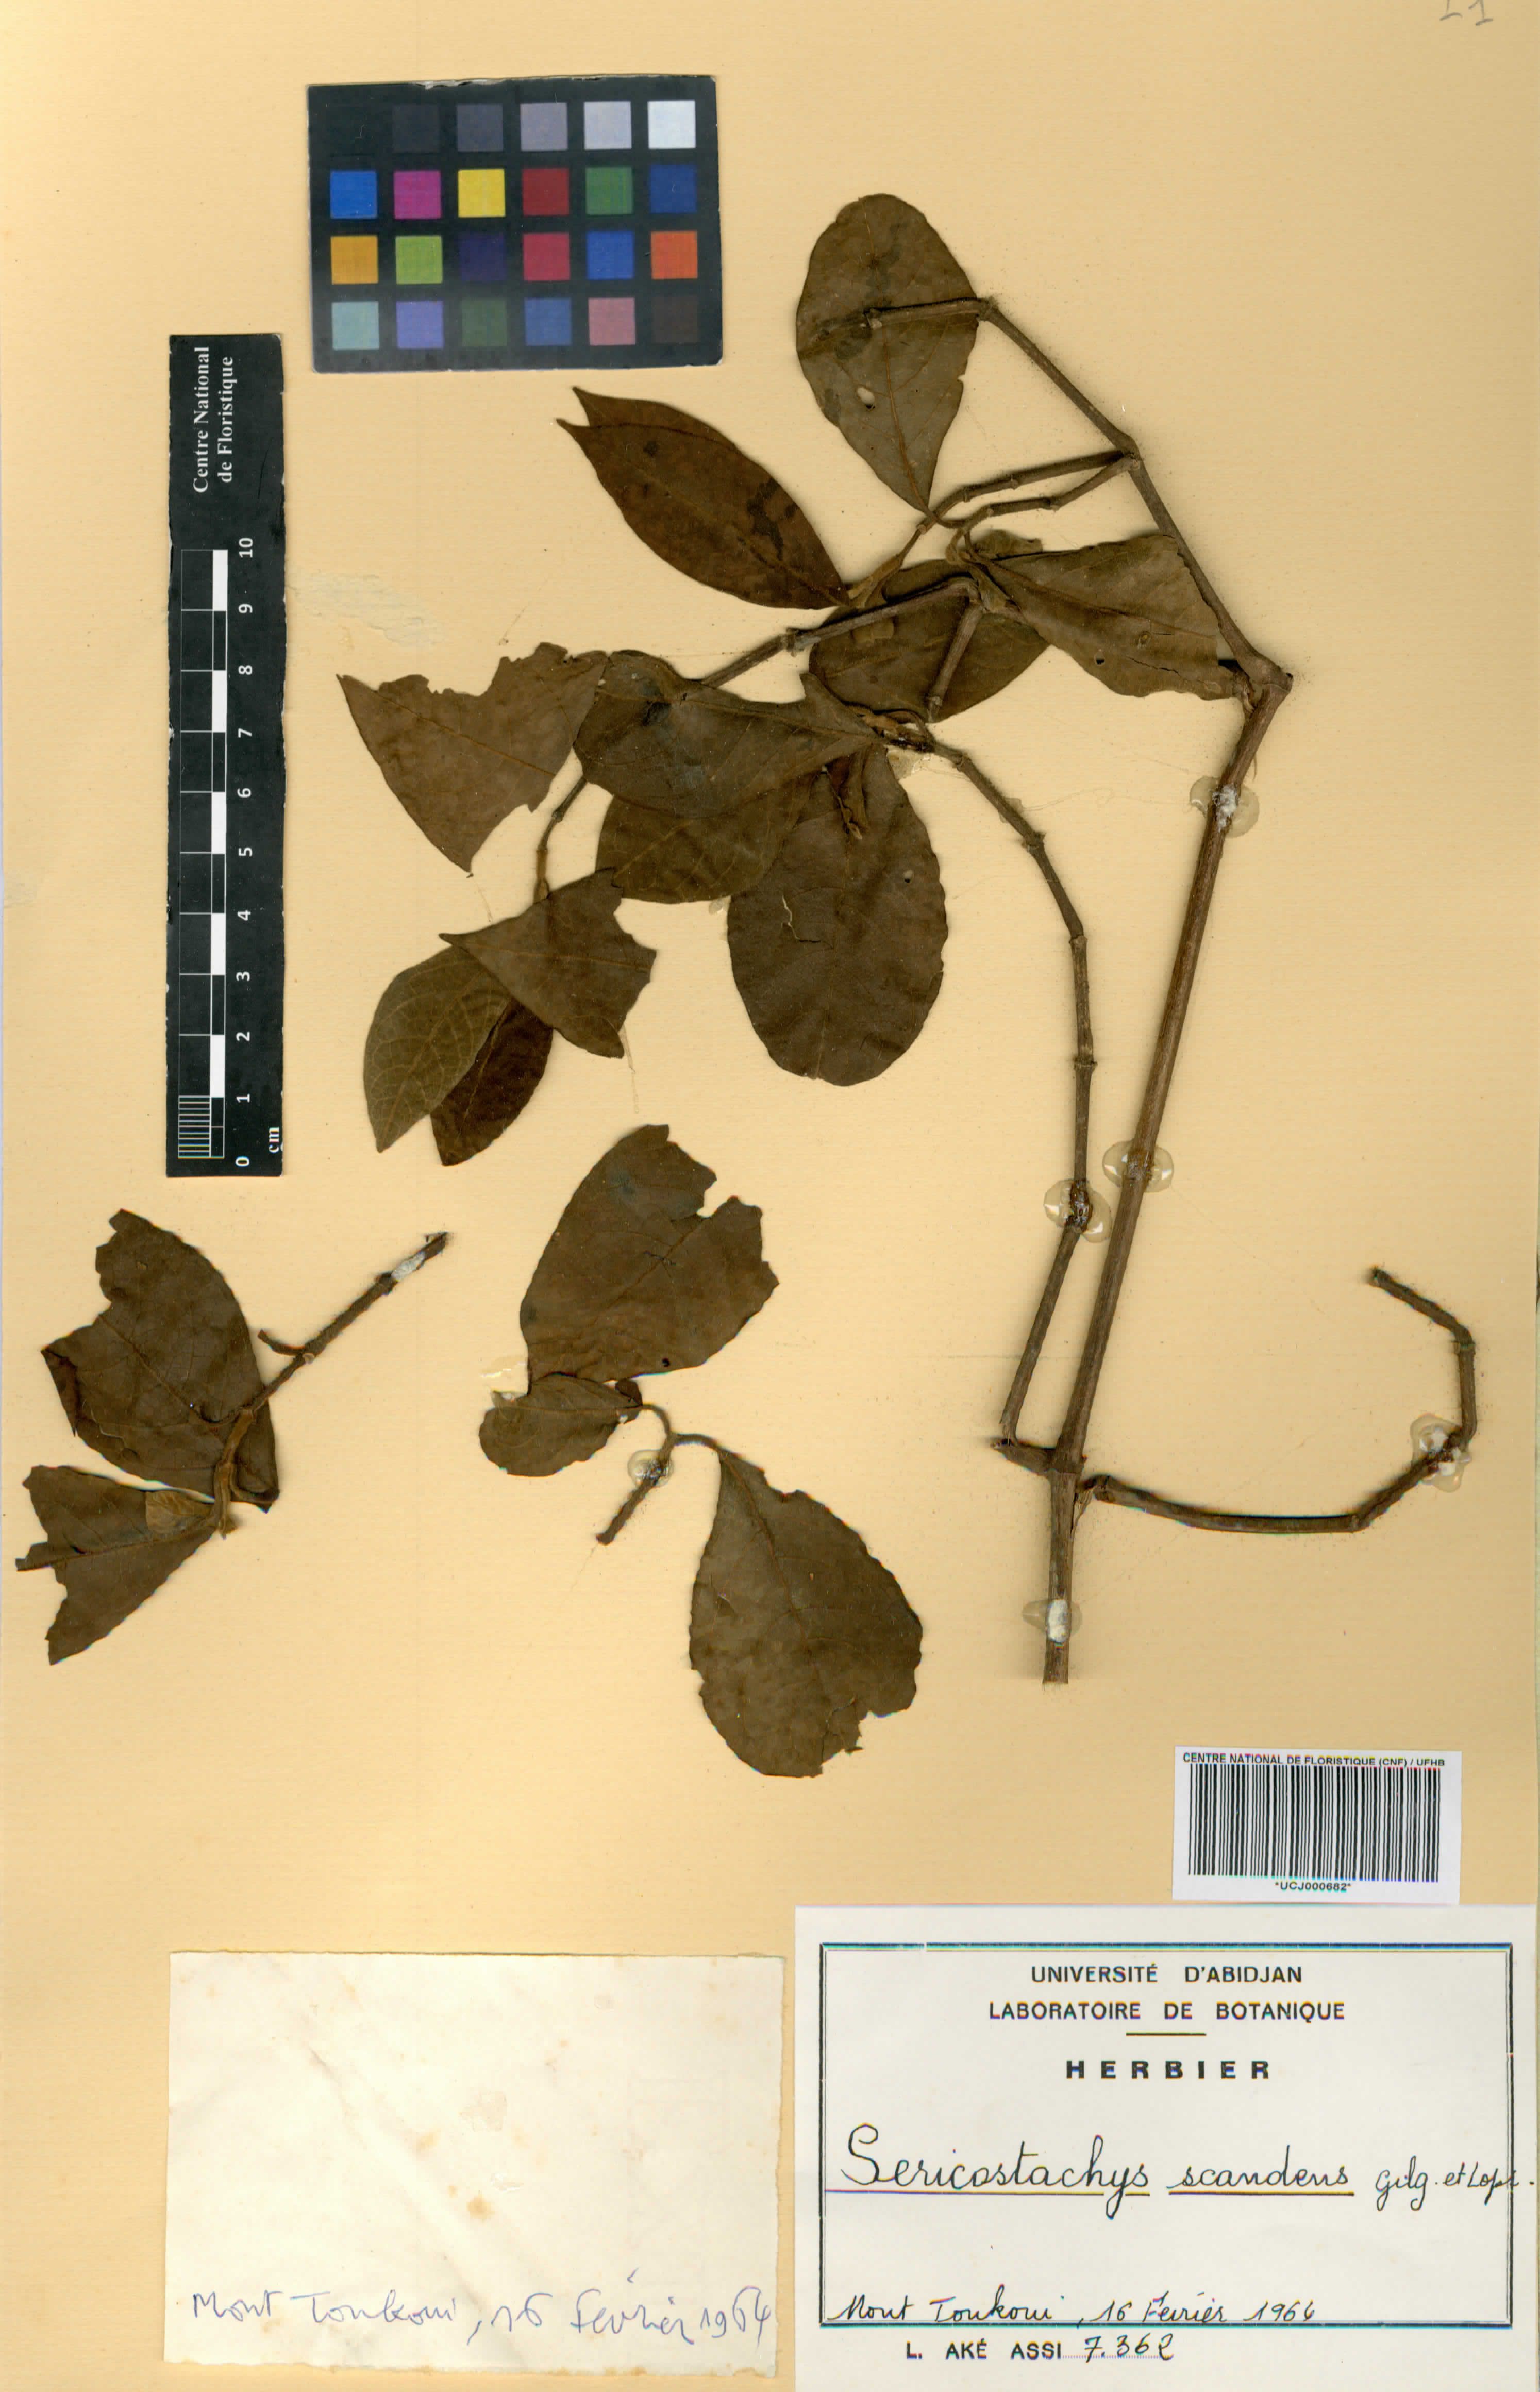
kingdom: Plantae
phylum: Tracheophyta
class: Magnoliopsida
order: Caryophyllales
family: Amaranthaceae
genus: Sericostachys
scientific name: Sericostachys scandens
